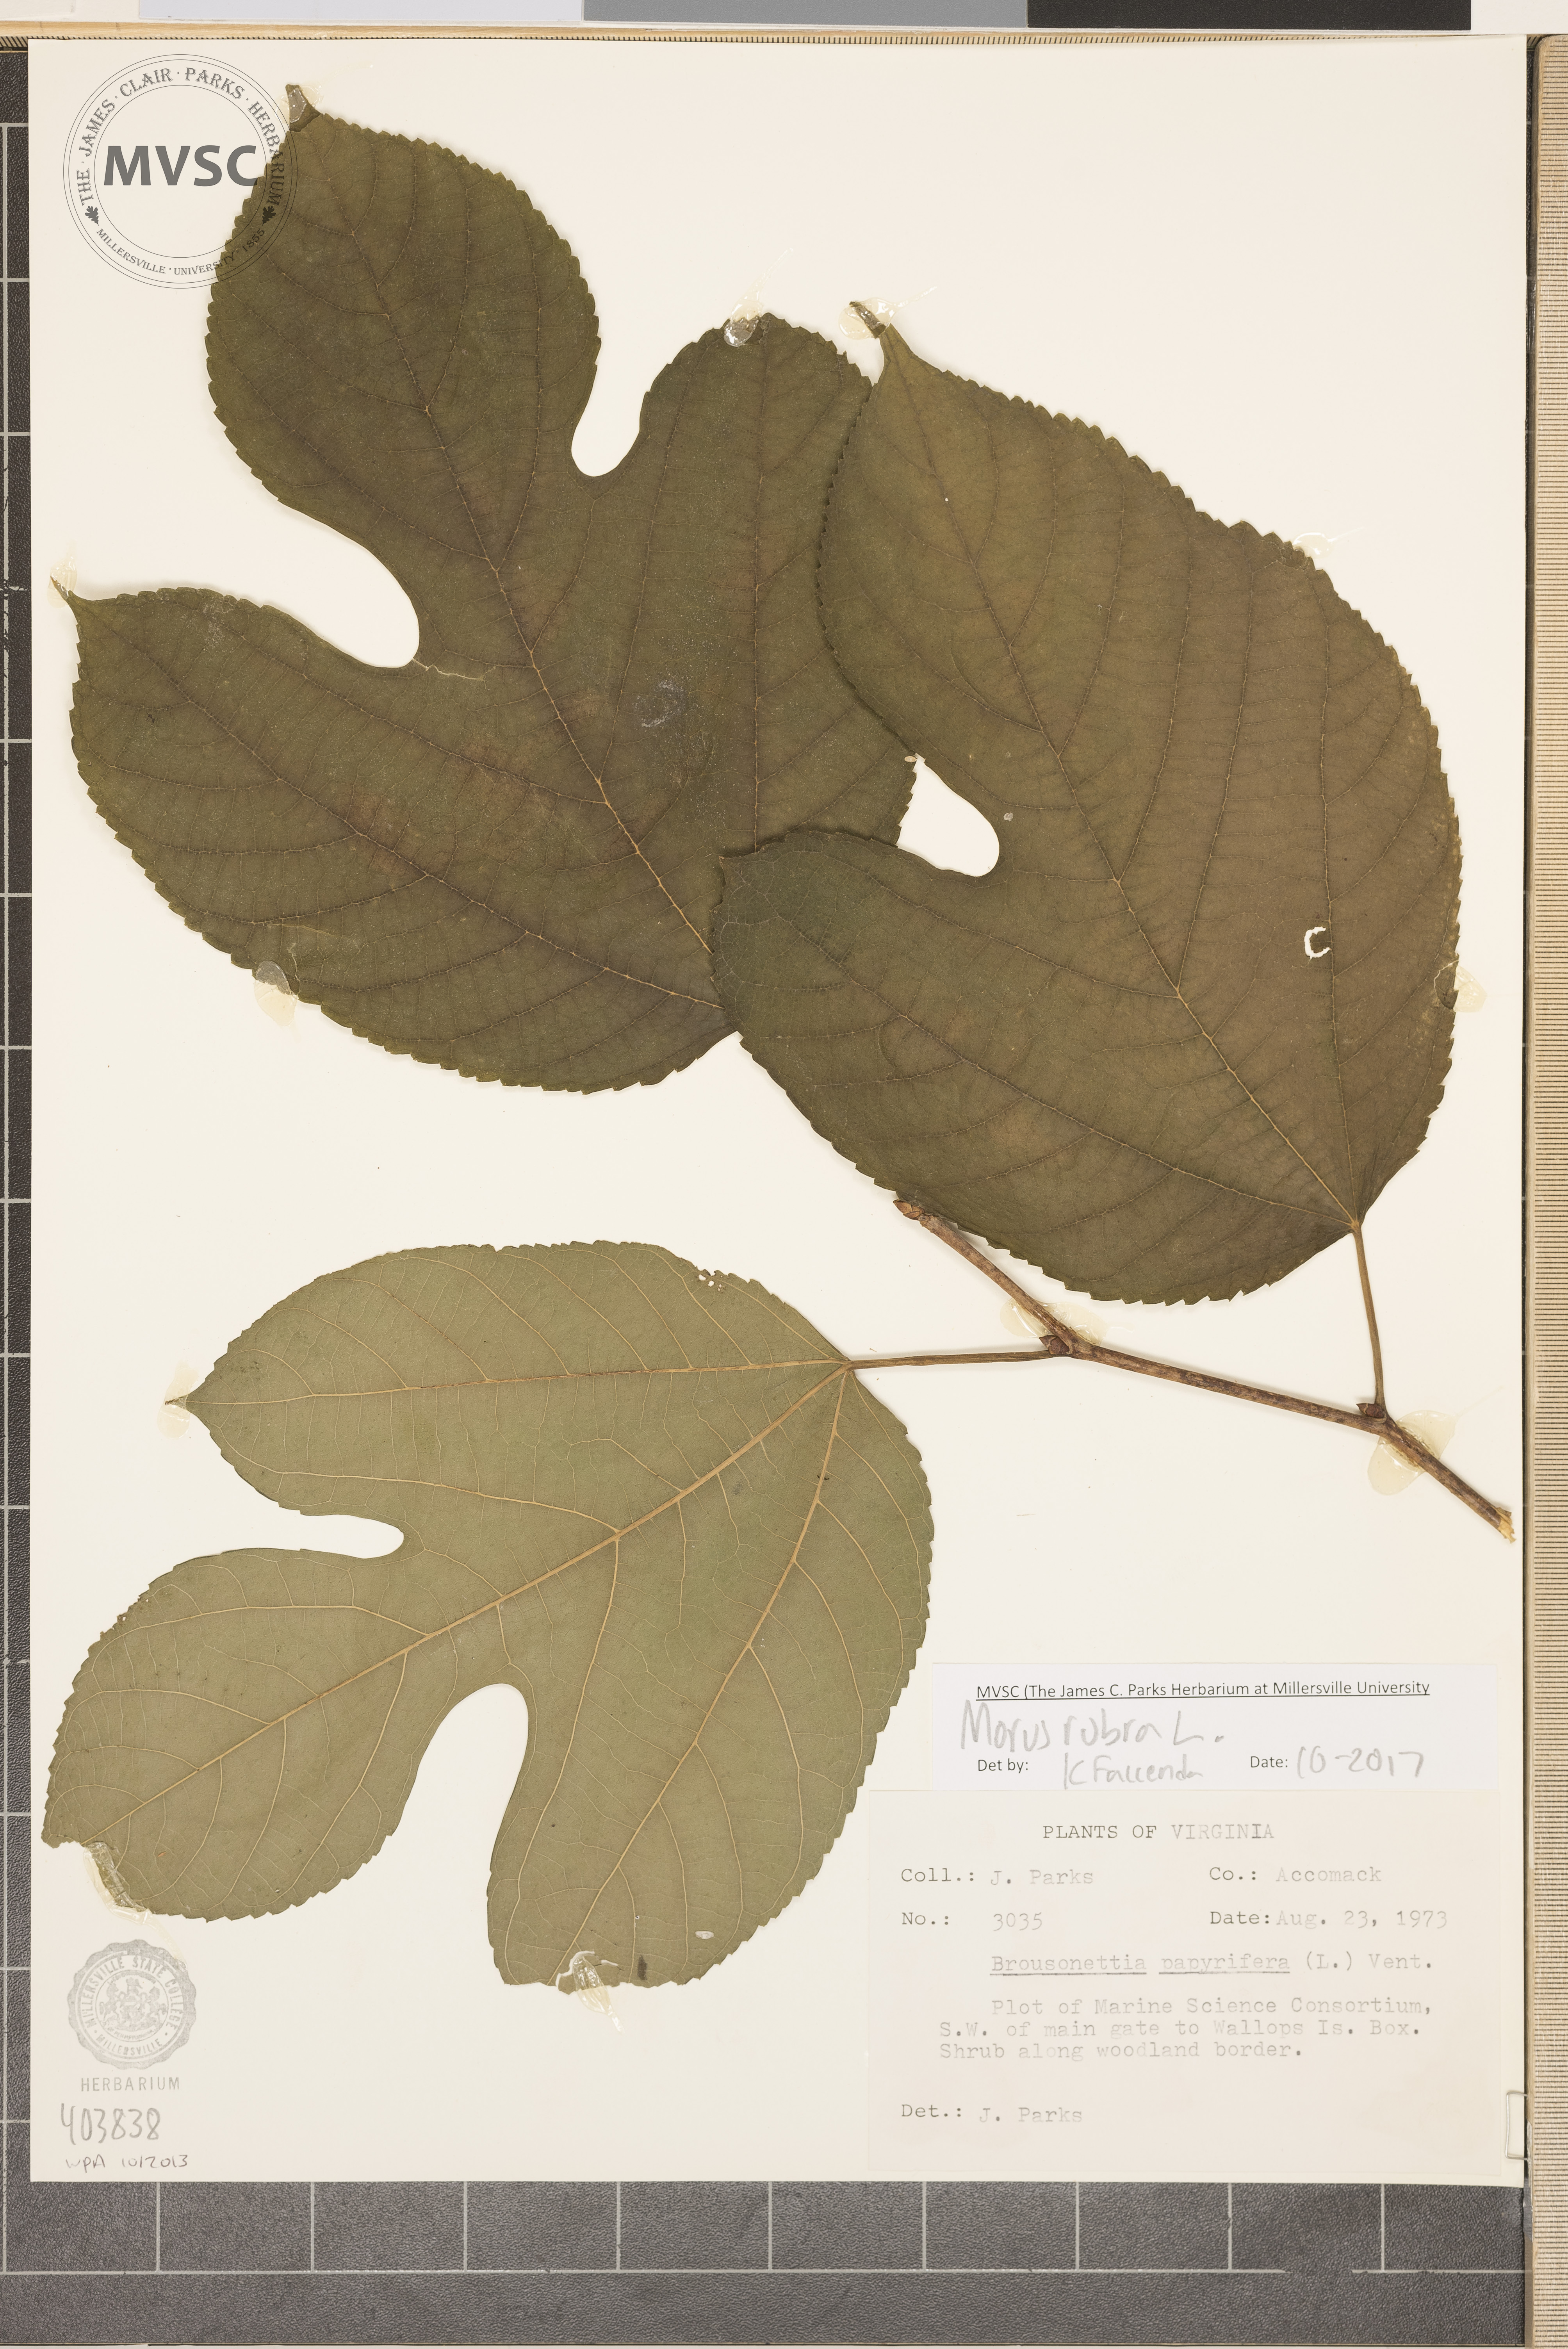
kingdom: Plantae
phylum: Tracheophyta
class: Magnoliopsida
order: Rosales
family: Moraceae
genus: Morus
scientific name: Morus rubra
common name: Red mulberry
